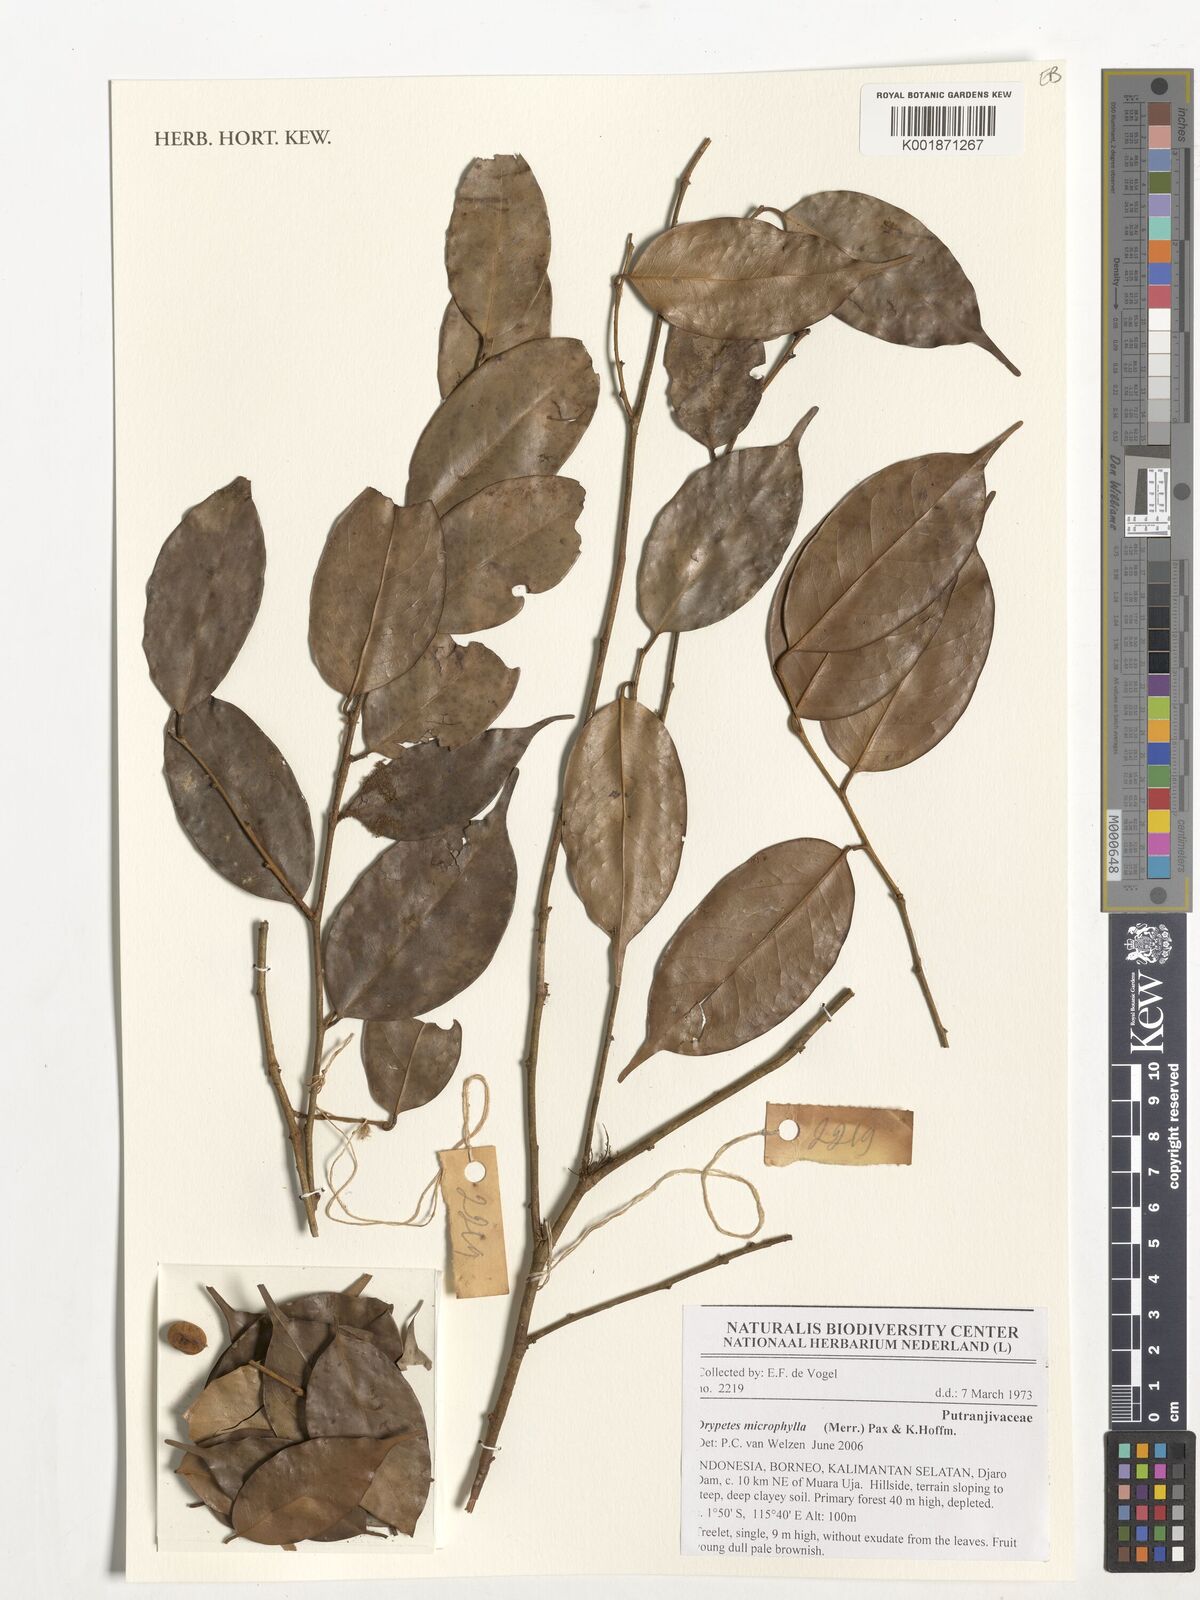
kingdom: Plantae
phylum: Tracheophyta
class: Magnoliopsida
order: Malpighiales
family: Putranjivaceae
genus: Drypetes
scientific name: Drypetes microphylla
